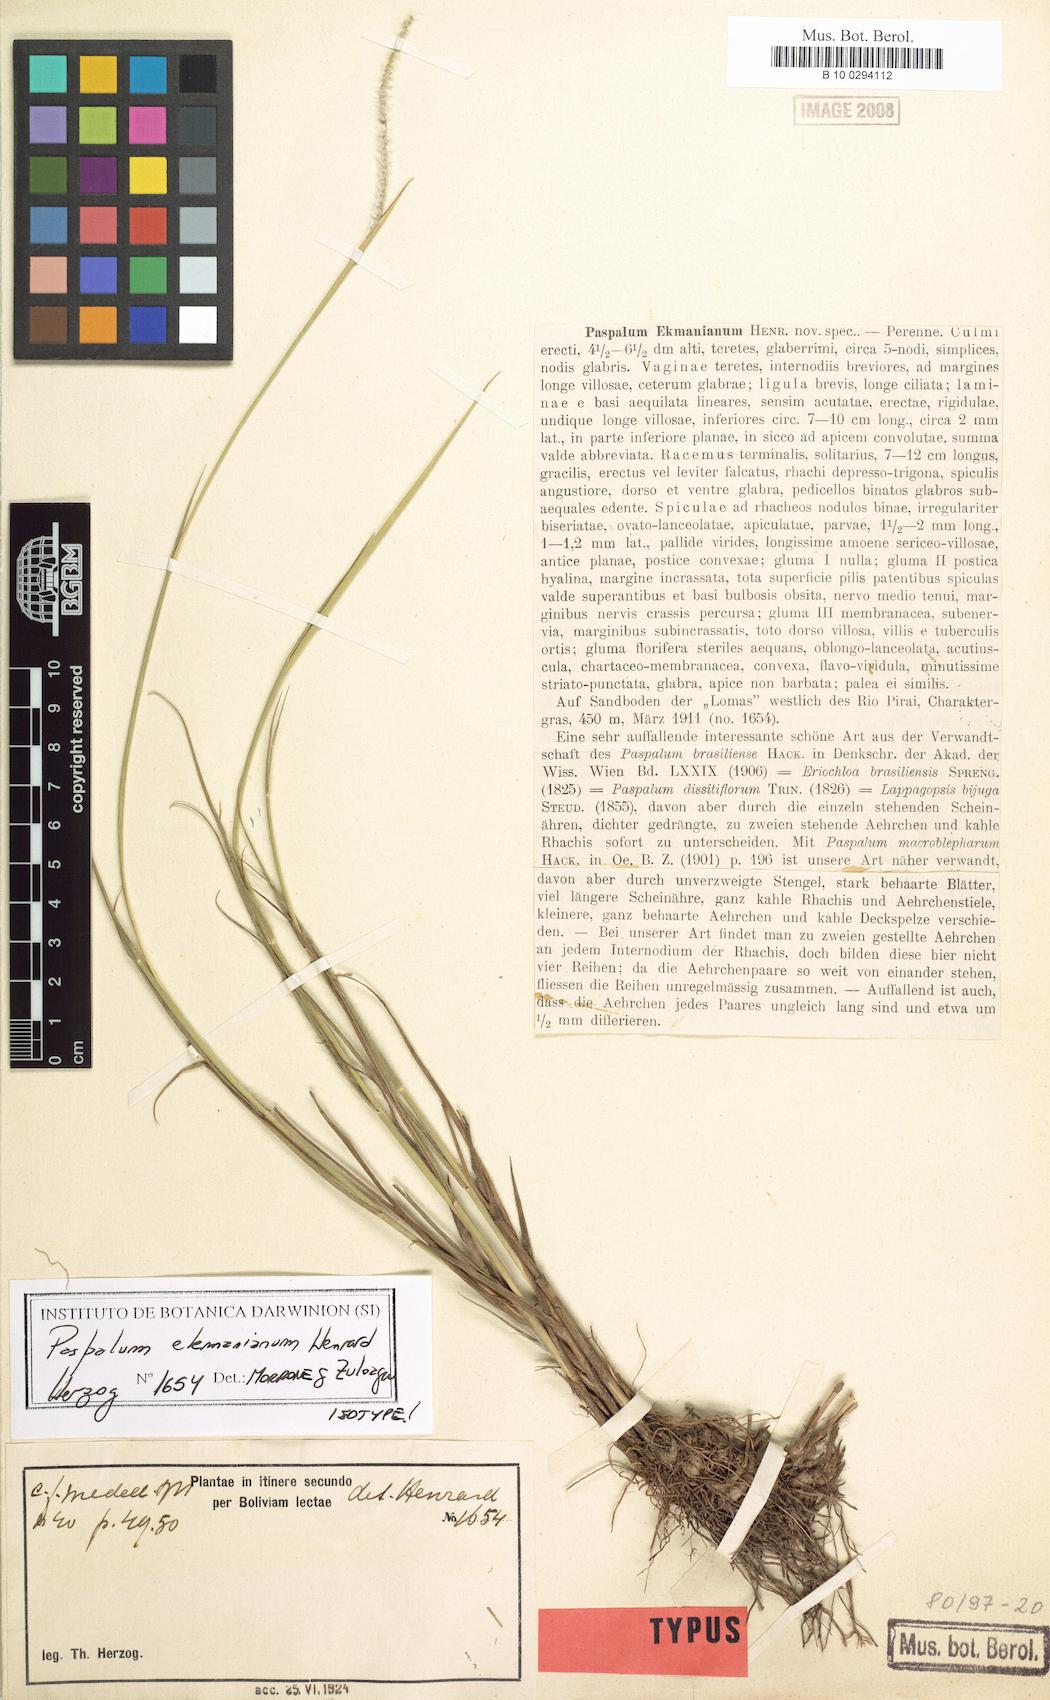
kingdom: Plantae
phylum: Tracheophyta
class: Liliopsida
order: Poales
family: Poaceae
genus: Paspalum
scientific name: Paspalum ekmanianum
